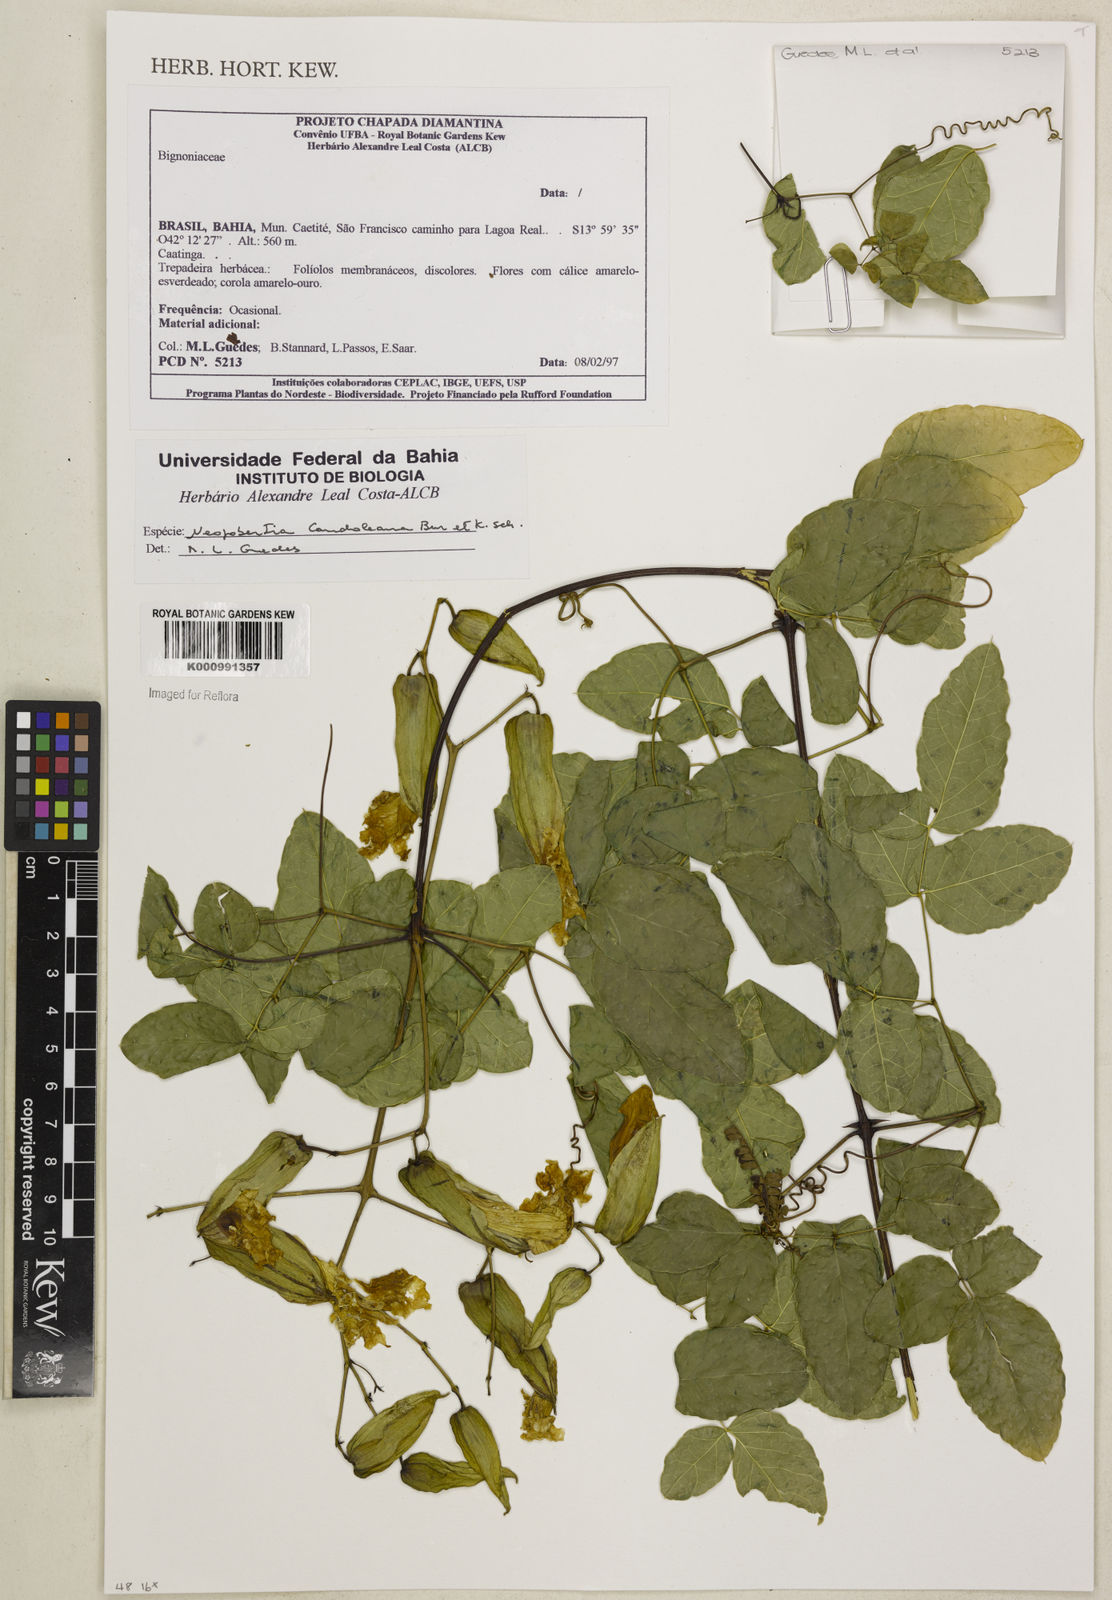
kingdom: Plantae
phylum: Tracheophyta
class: Magnoliopsida
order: Lamiales
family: Bignoniaceae
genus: Adenocalymma
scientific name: Adenocalymma candolleanum
